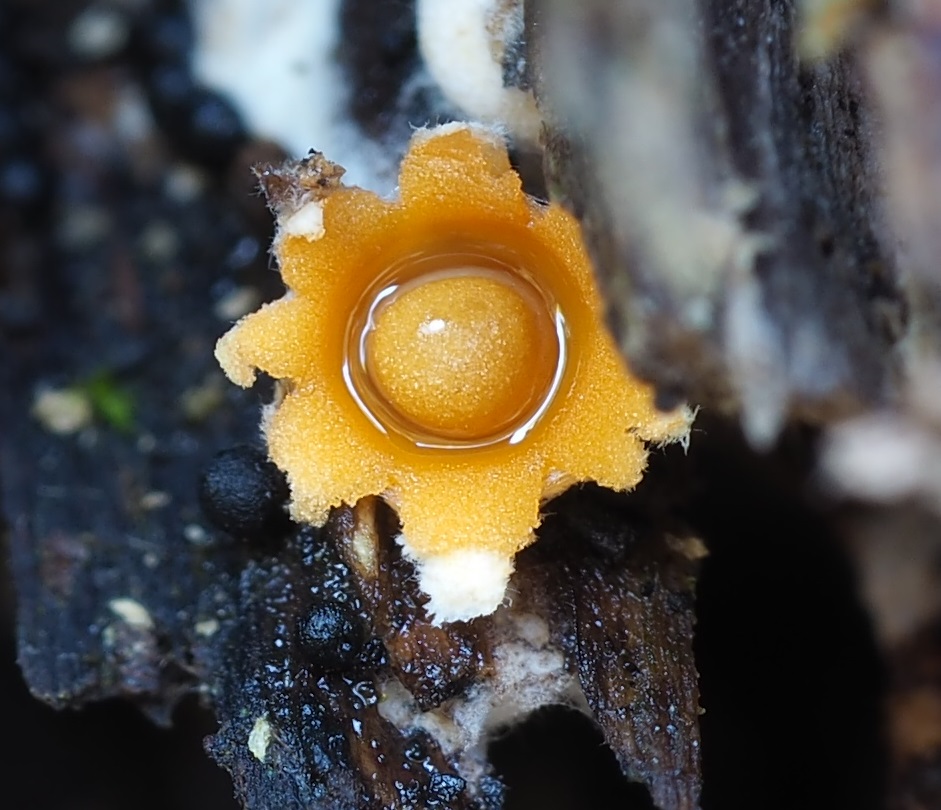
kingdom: Fungi
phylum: Basidiomycota
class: Agaricomycetes
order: Geastrales
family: Geastraceae
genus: Sphaerobolus
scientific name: Sphaerobolus stellatus
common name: bombekaster
